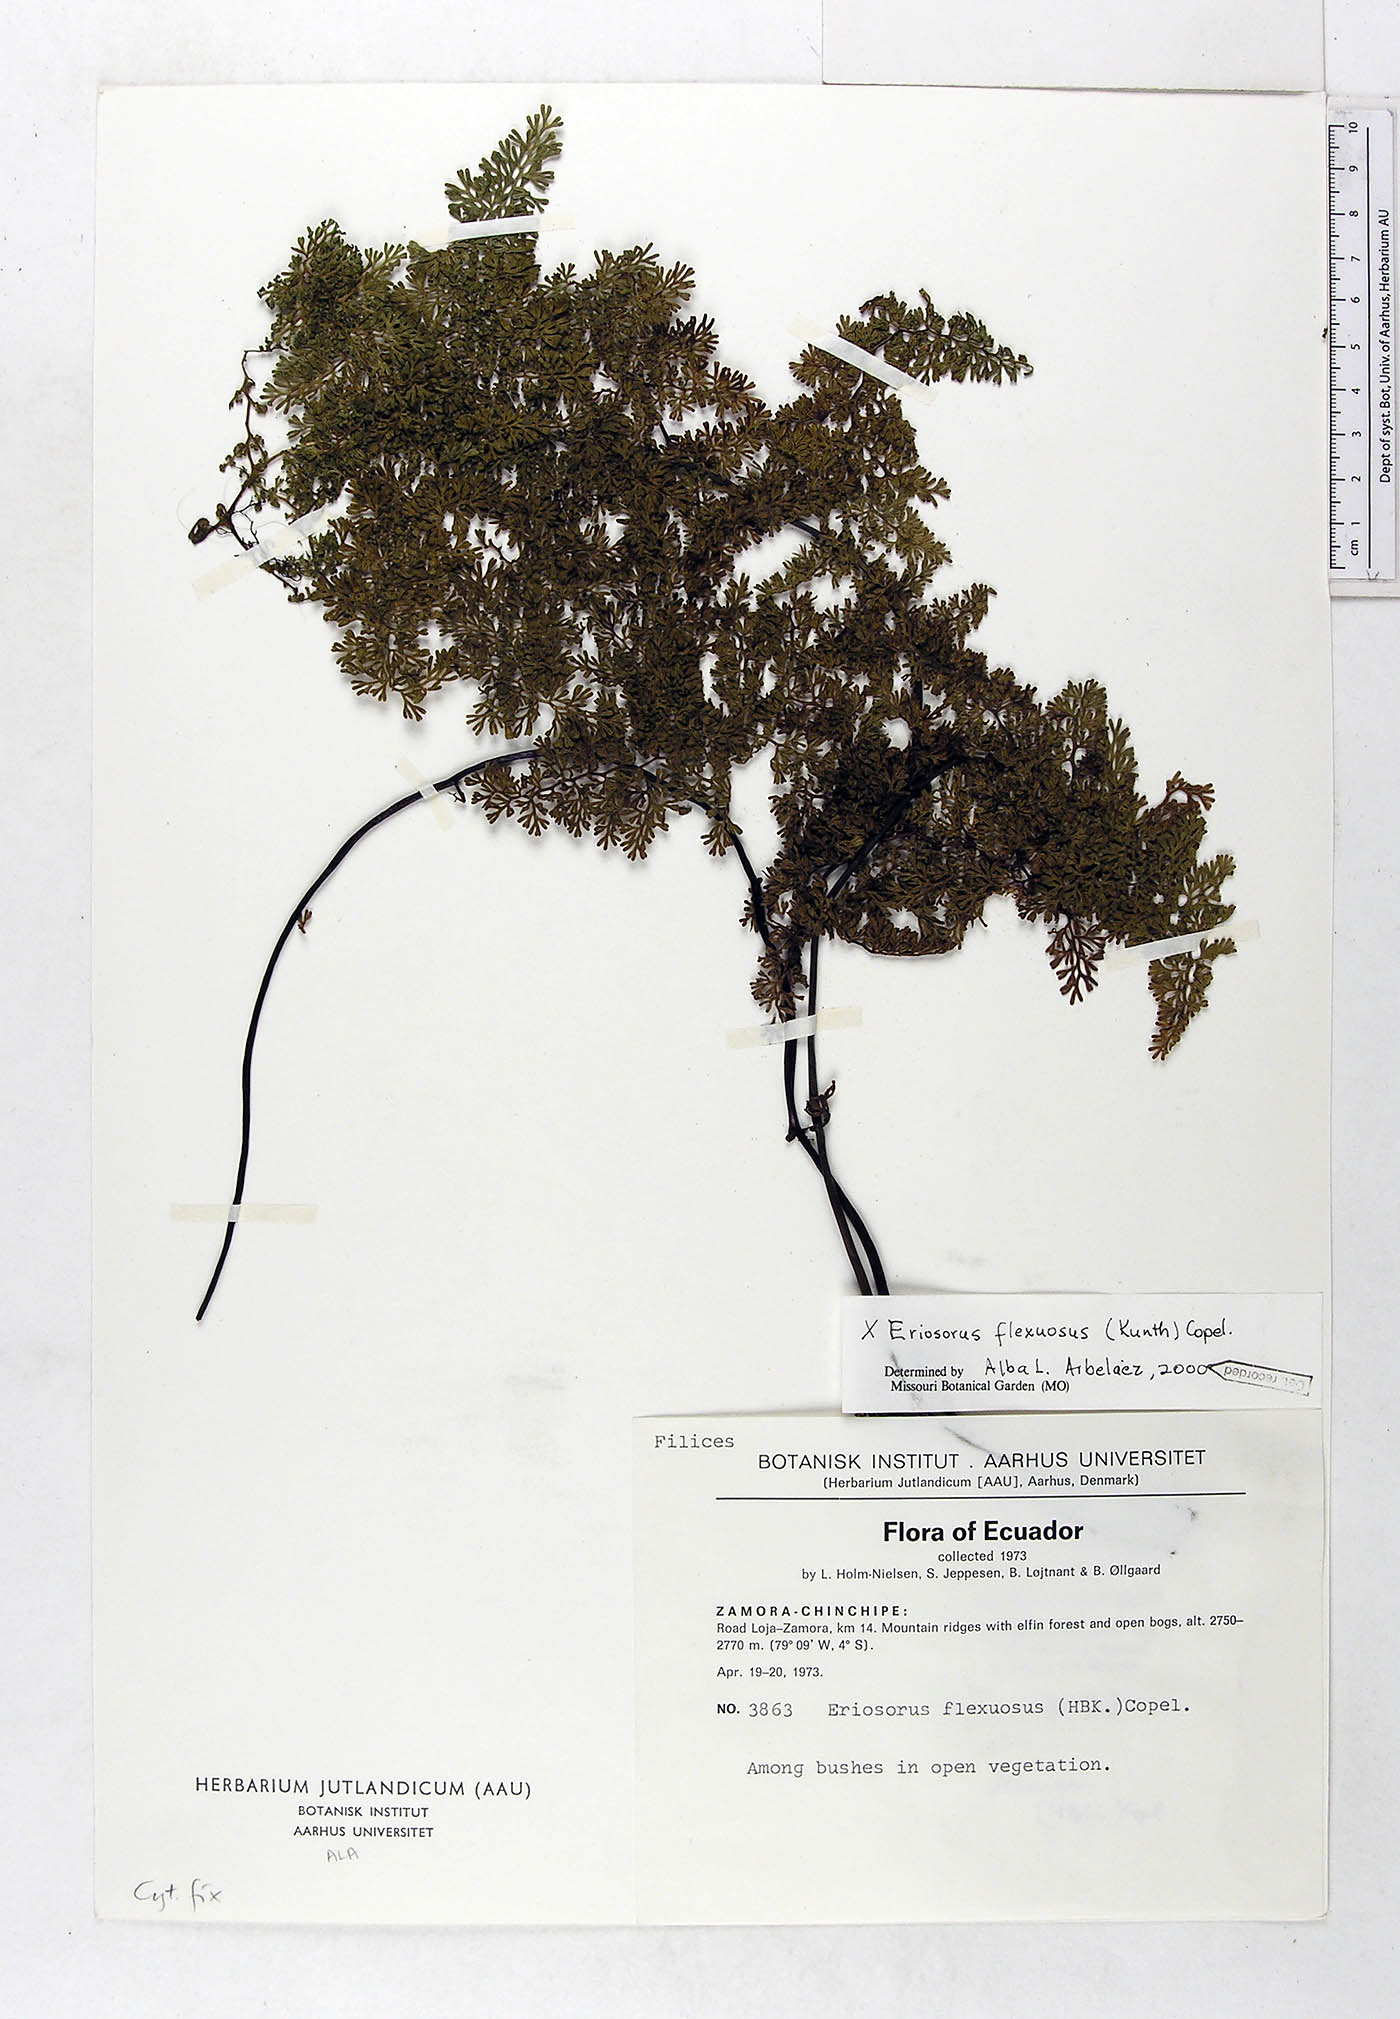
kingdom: Plantae
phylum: Tracheophyta
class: Polypodiopsida
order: Polypodiales
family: Pteridaceae
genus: Jamesonia
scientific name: Jamesonia flexuosa
